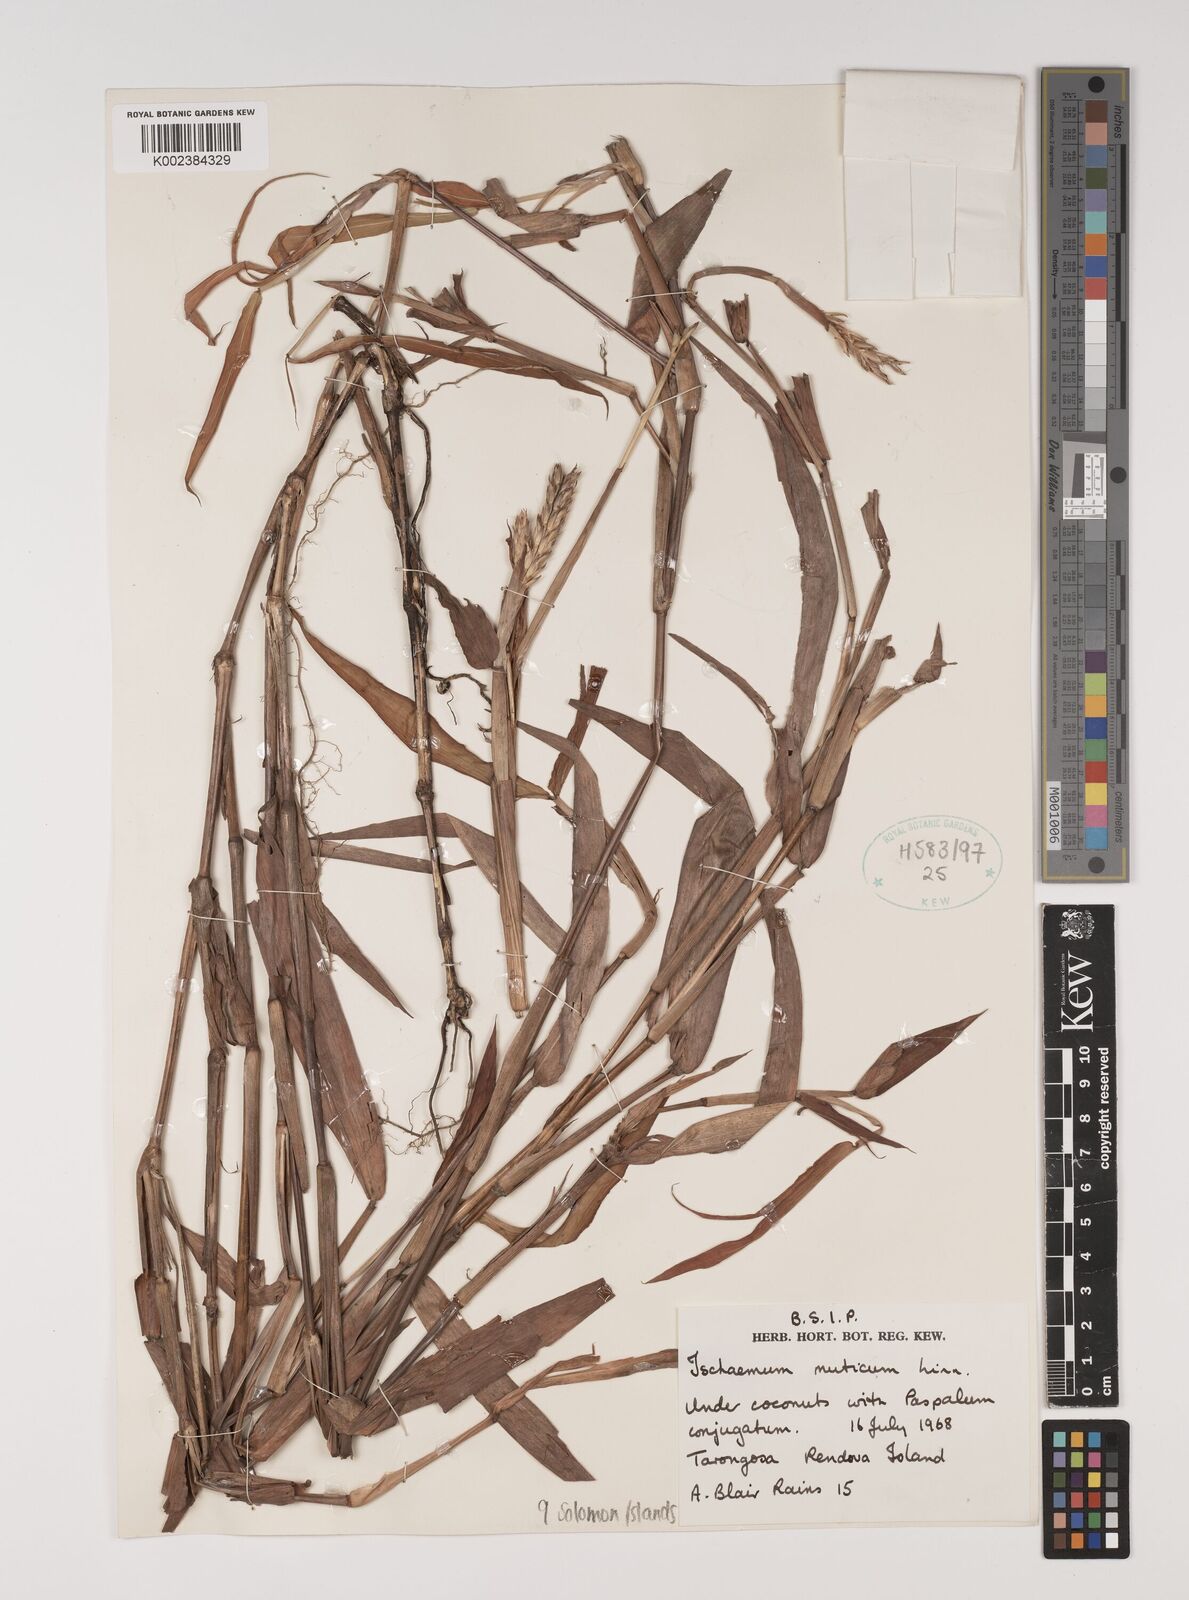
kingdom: Plantae
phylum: Tracheophyta
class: Liliopsida
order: Poales
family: Poaceae
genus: Ischaemum
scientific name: Ischaemum muticum
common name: Drought grass
